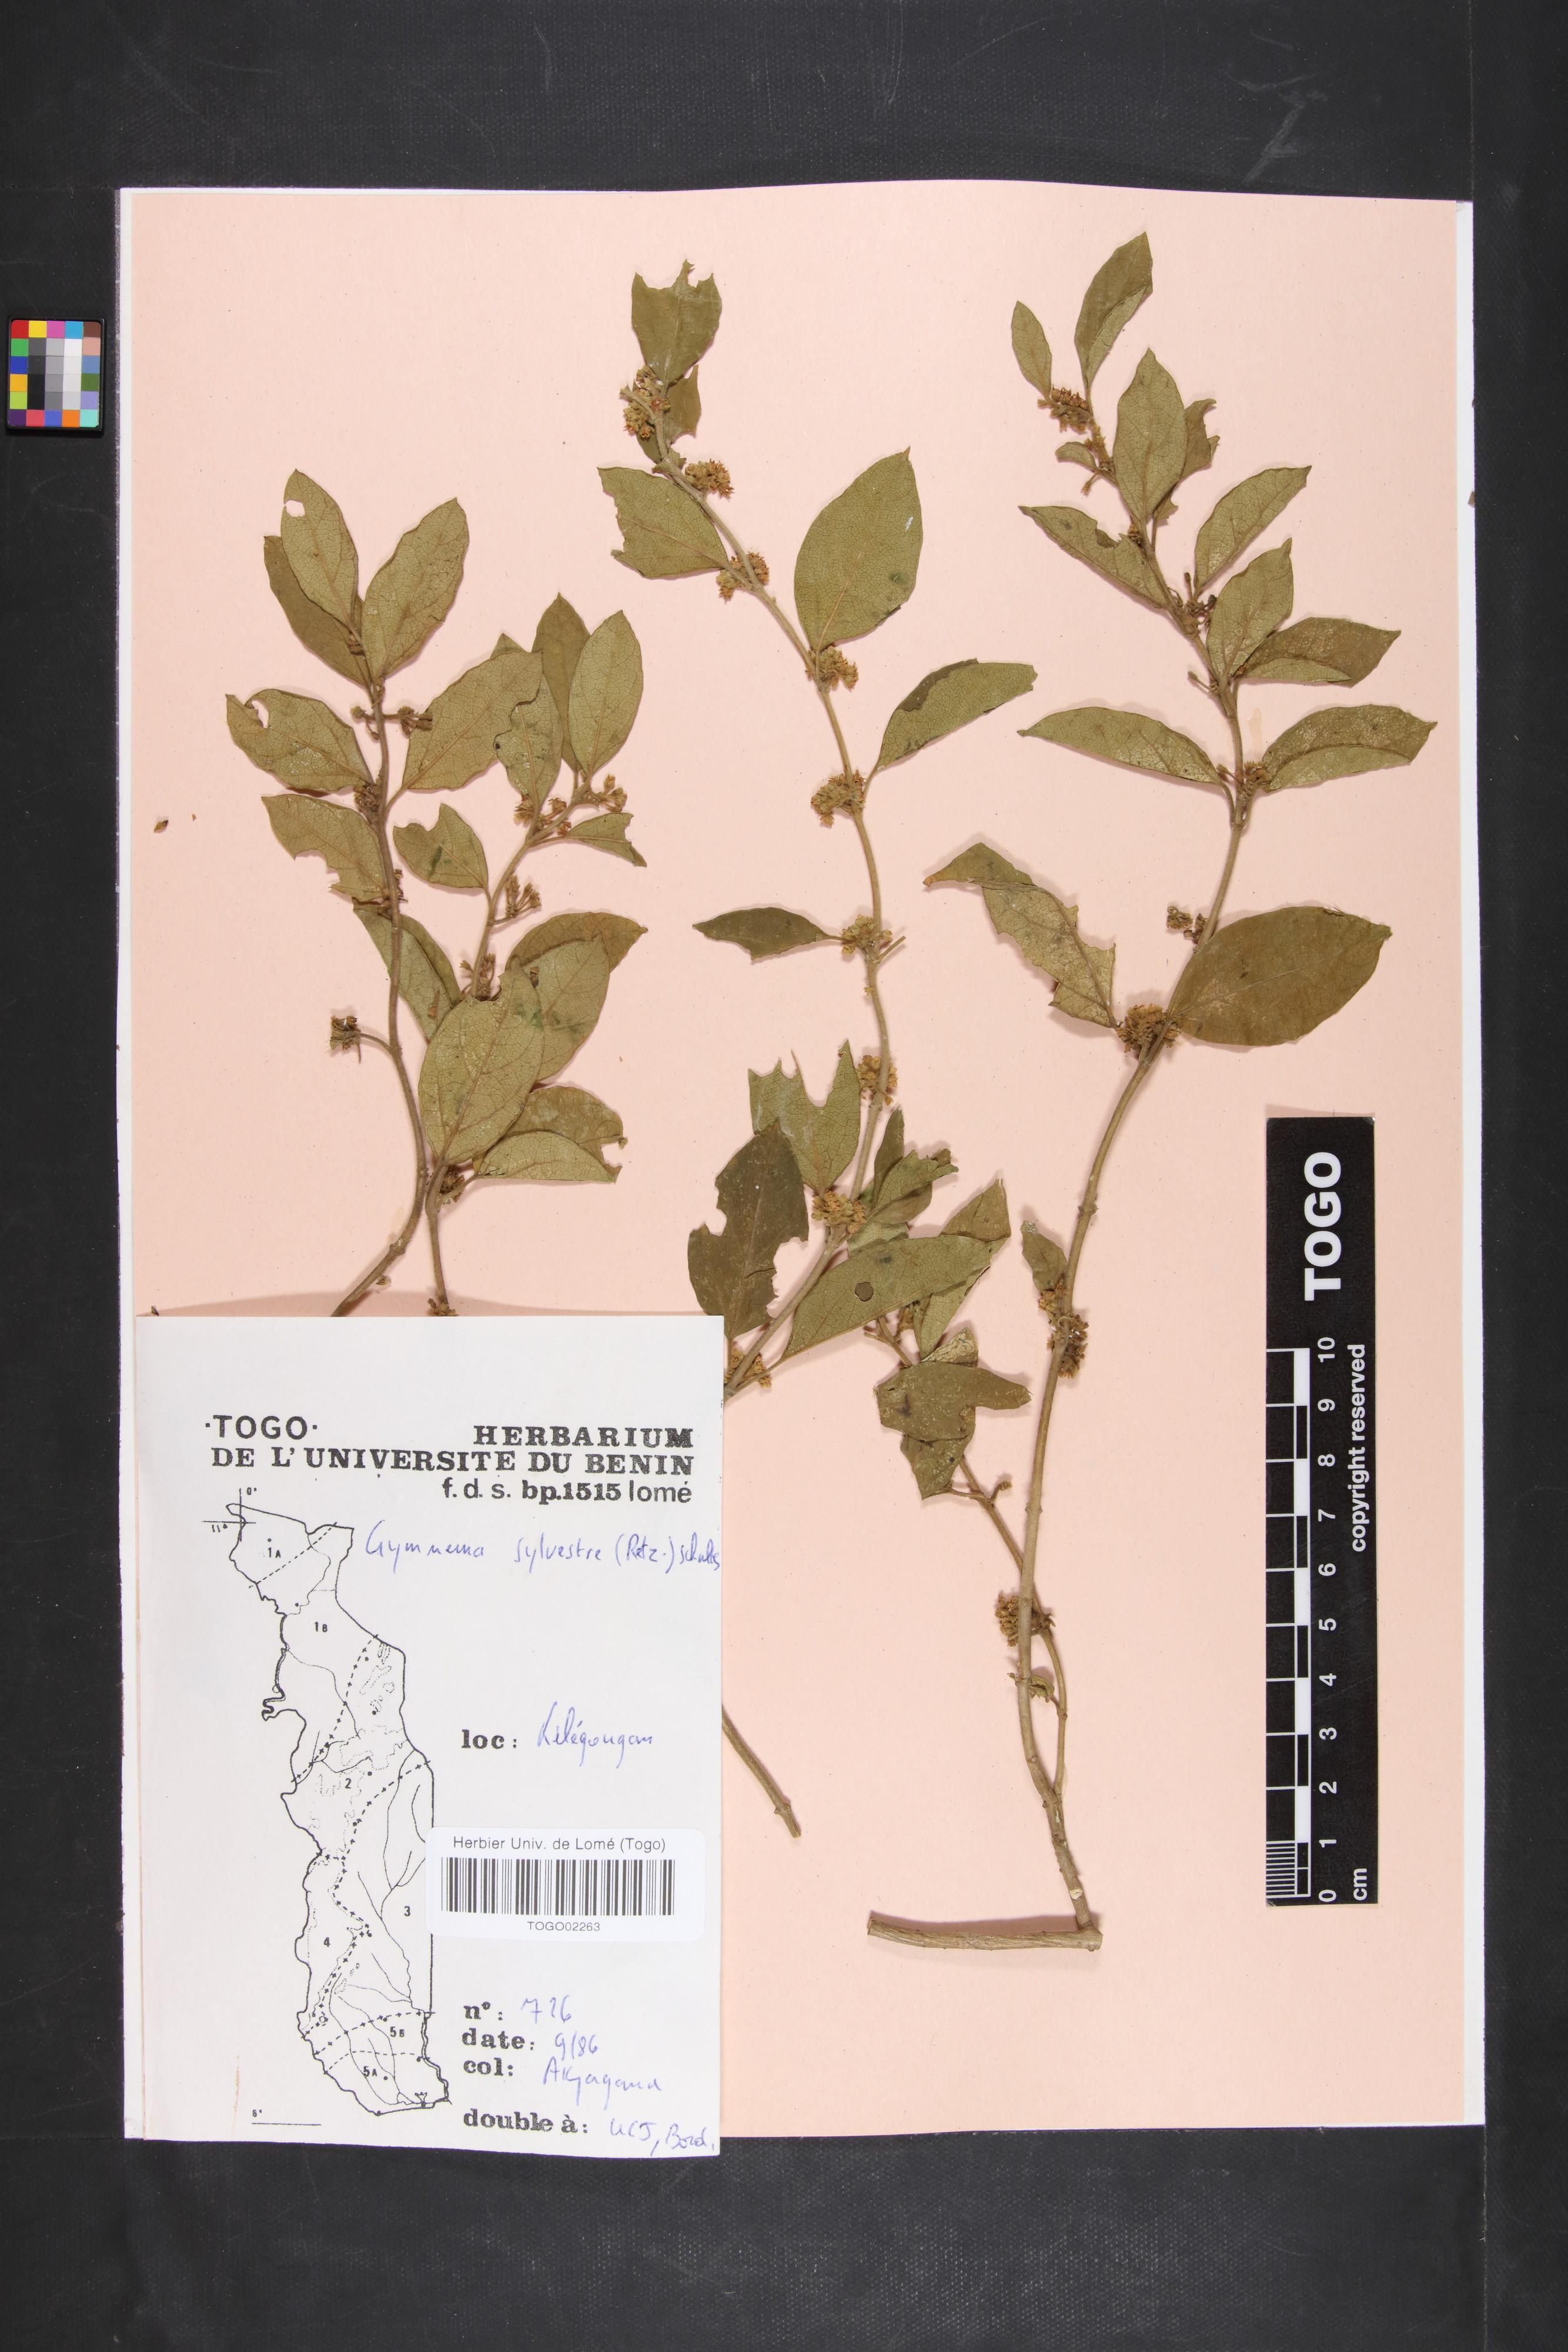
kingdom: Plantae
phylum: Tracheophyta
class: Magnoliopsida
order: Gentianales
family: Apocynaceae
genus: Gymnema
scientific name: Gymnema sylvestre
